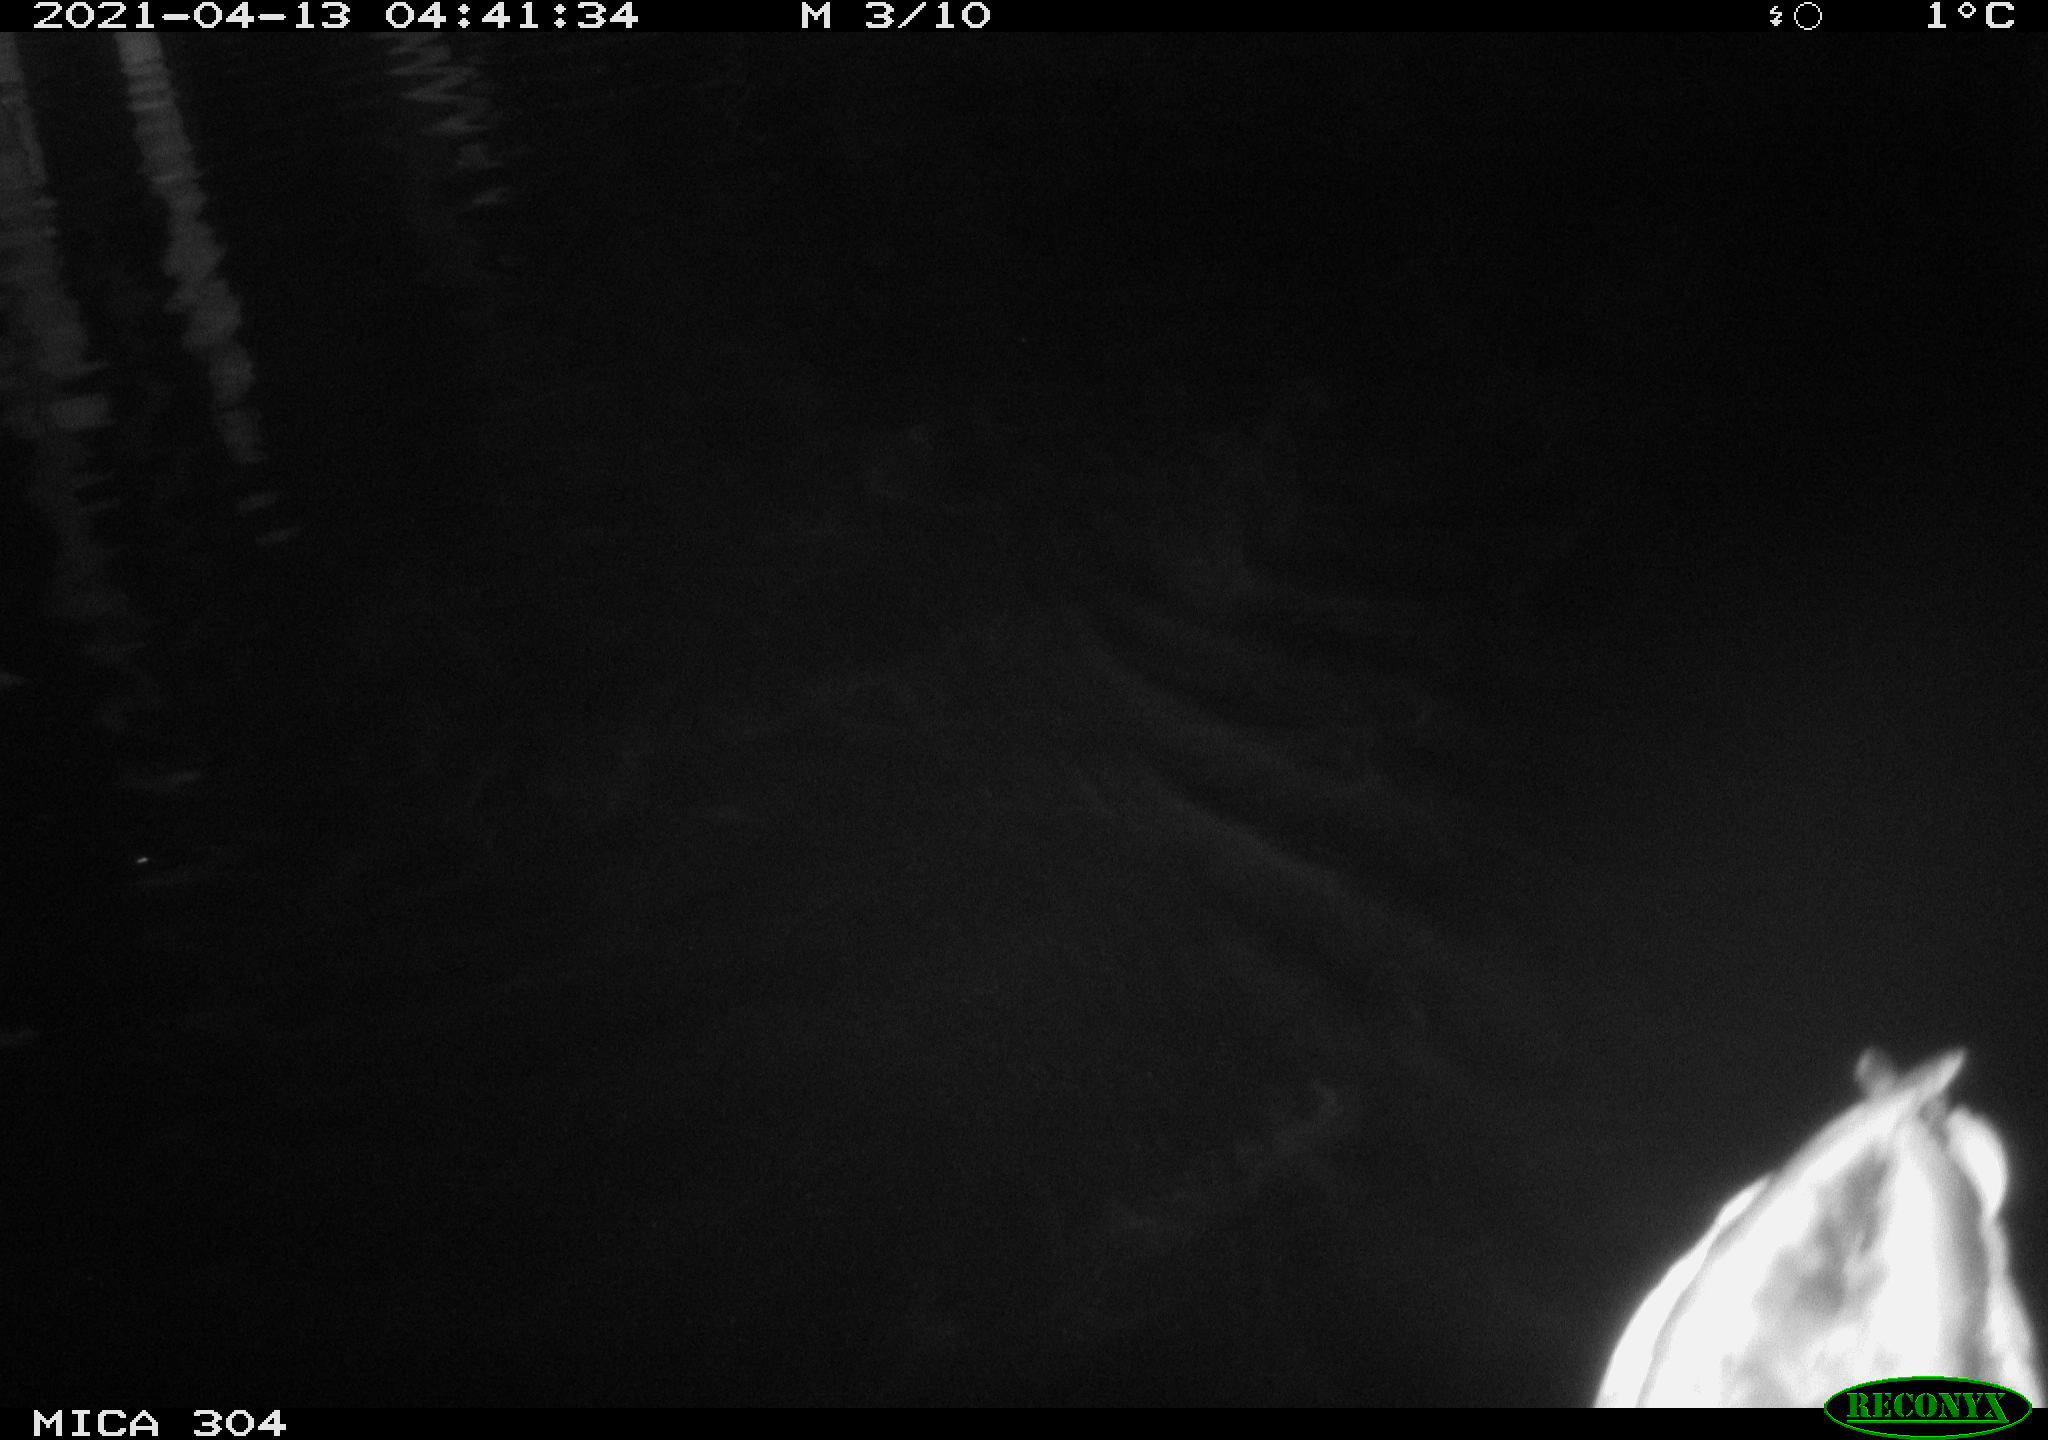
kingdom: Animalia
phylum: Chordata
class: Aves
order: Anseriformes
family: Anatidae
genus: Anas
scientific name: Anas
